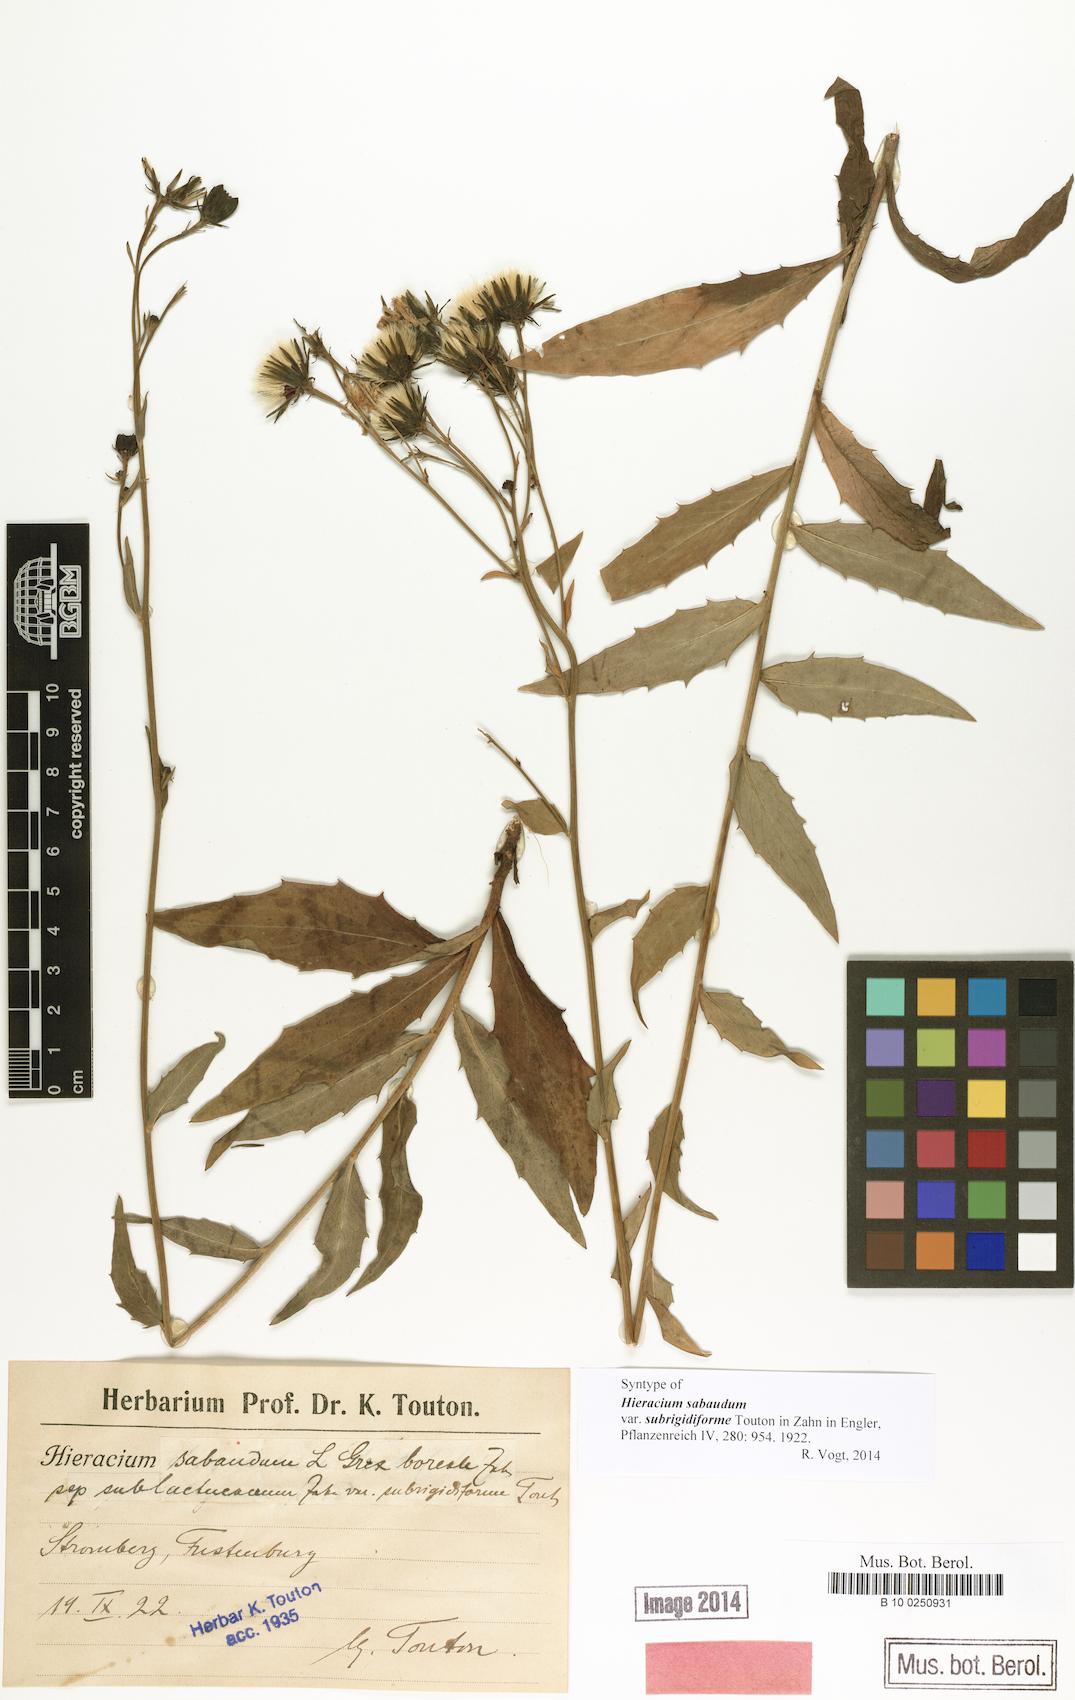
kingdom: Plantae
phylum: Tracheophyta
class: Magnoliopsida
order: Asterales
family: Asteraceae
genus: Hieracium
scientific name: Hieracium sabaudum
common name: New england hawkweed
